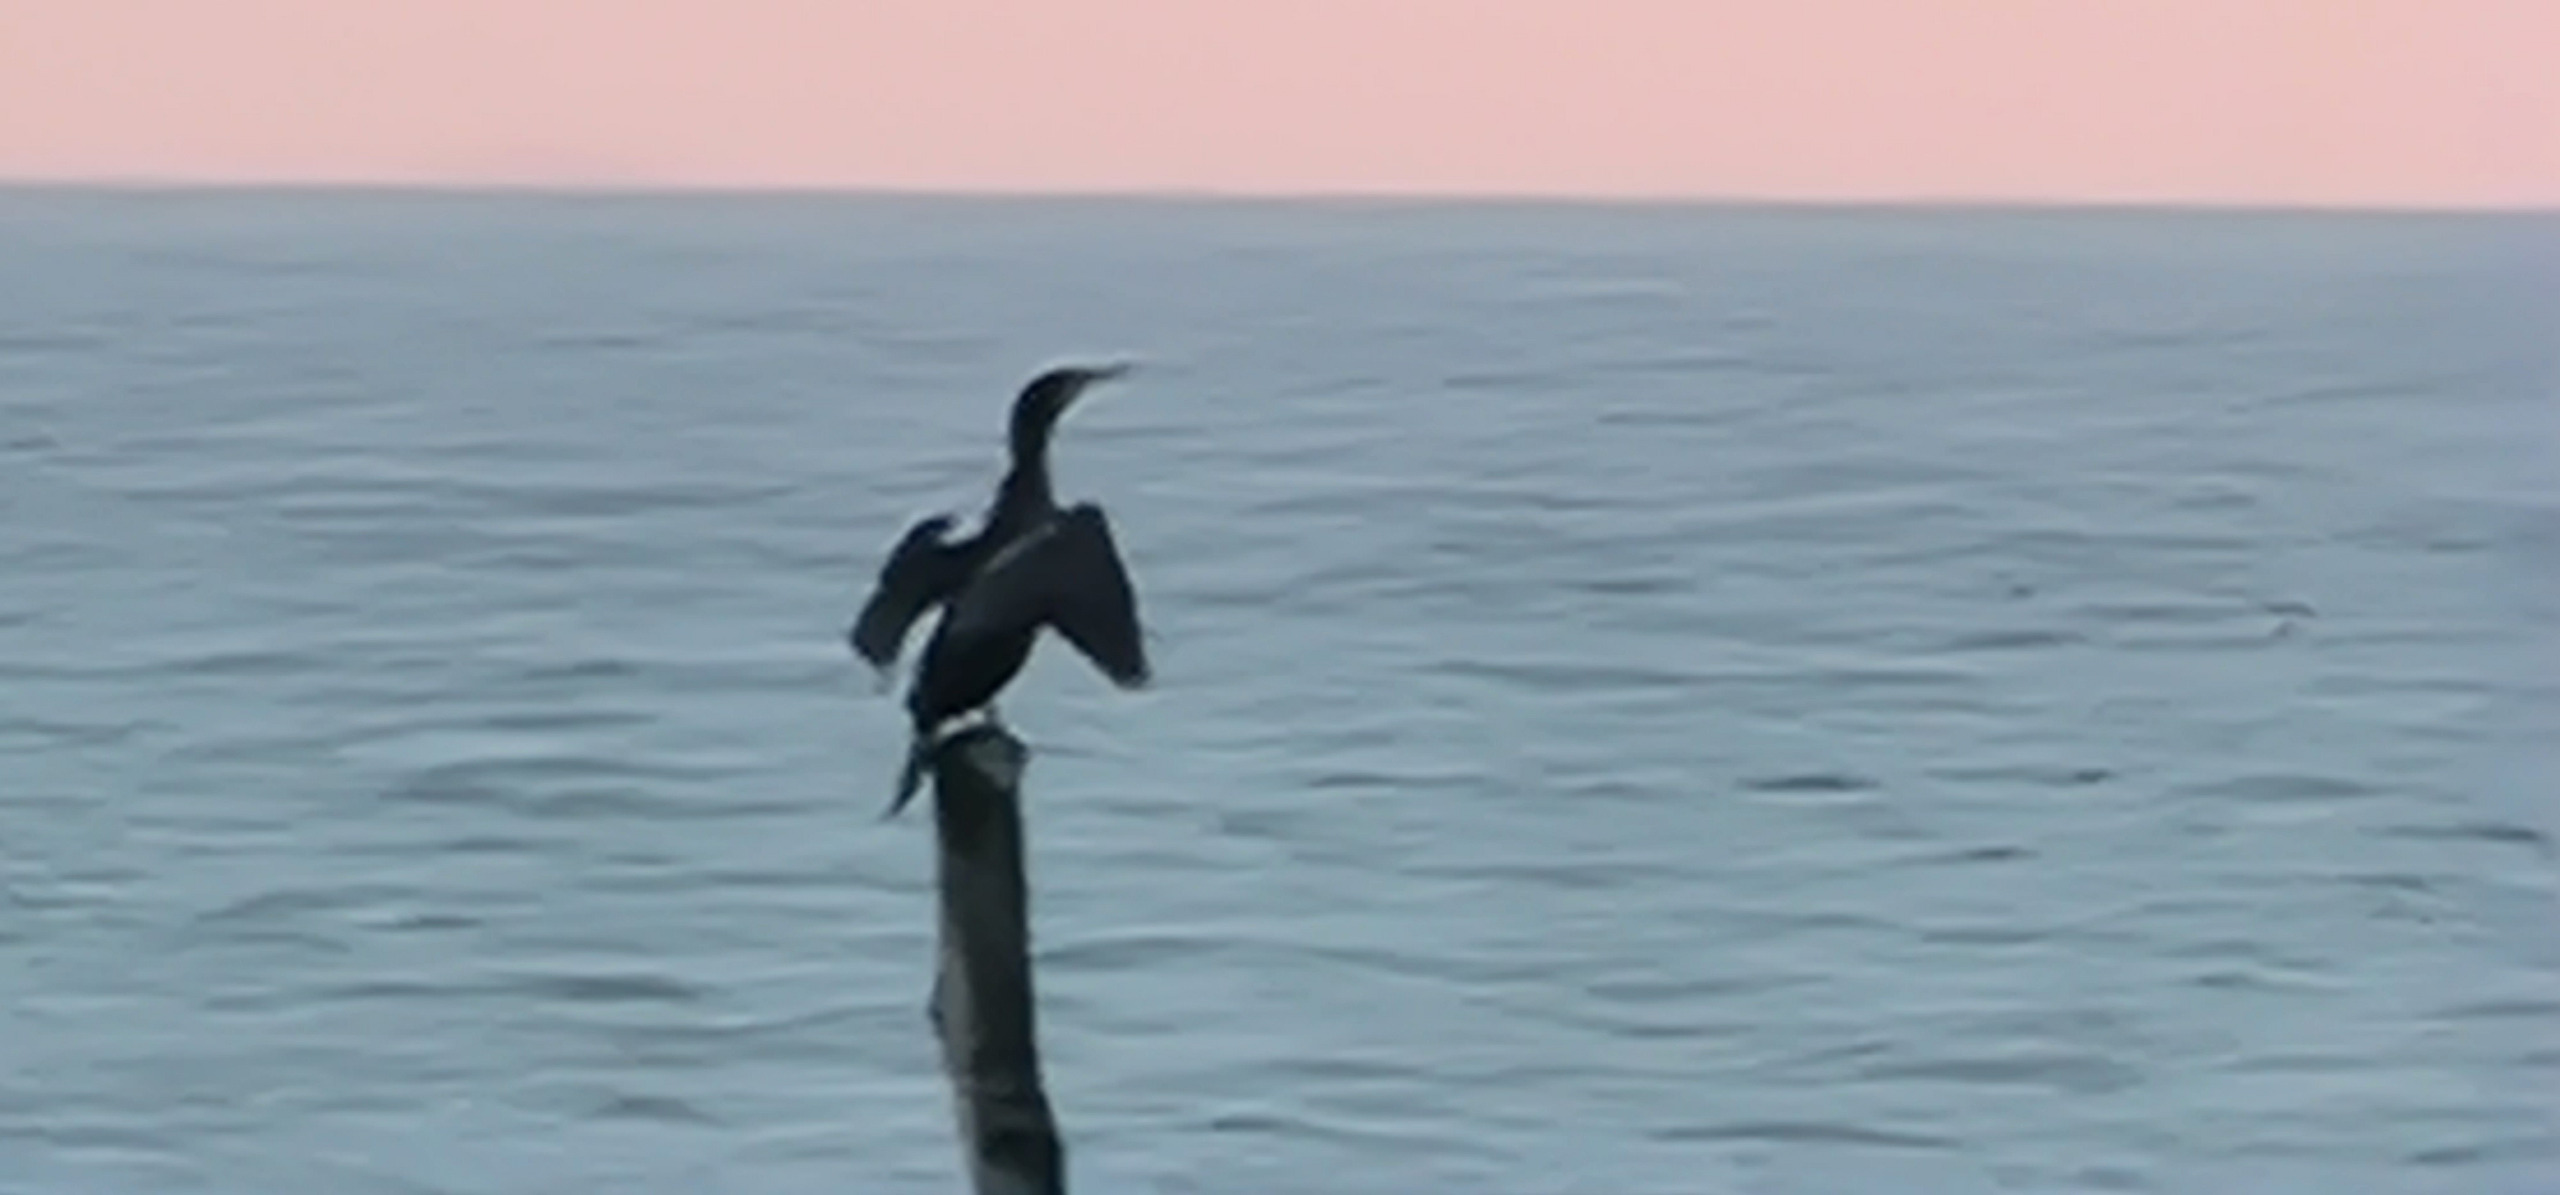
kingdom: Animalia
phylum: Chordata
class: Aves
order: Suliformes
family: Phalacrocoracidae
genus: Phalacrocorax
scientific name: Phalacrocorax carbo
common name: Skarv
